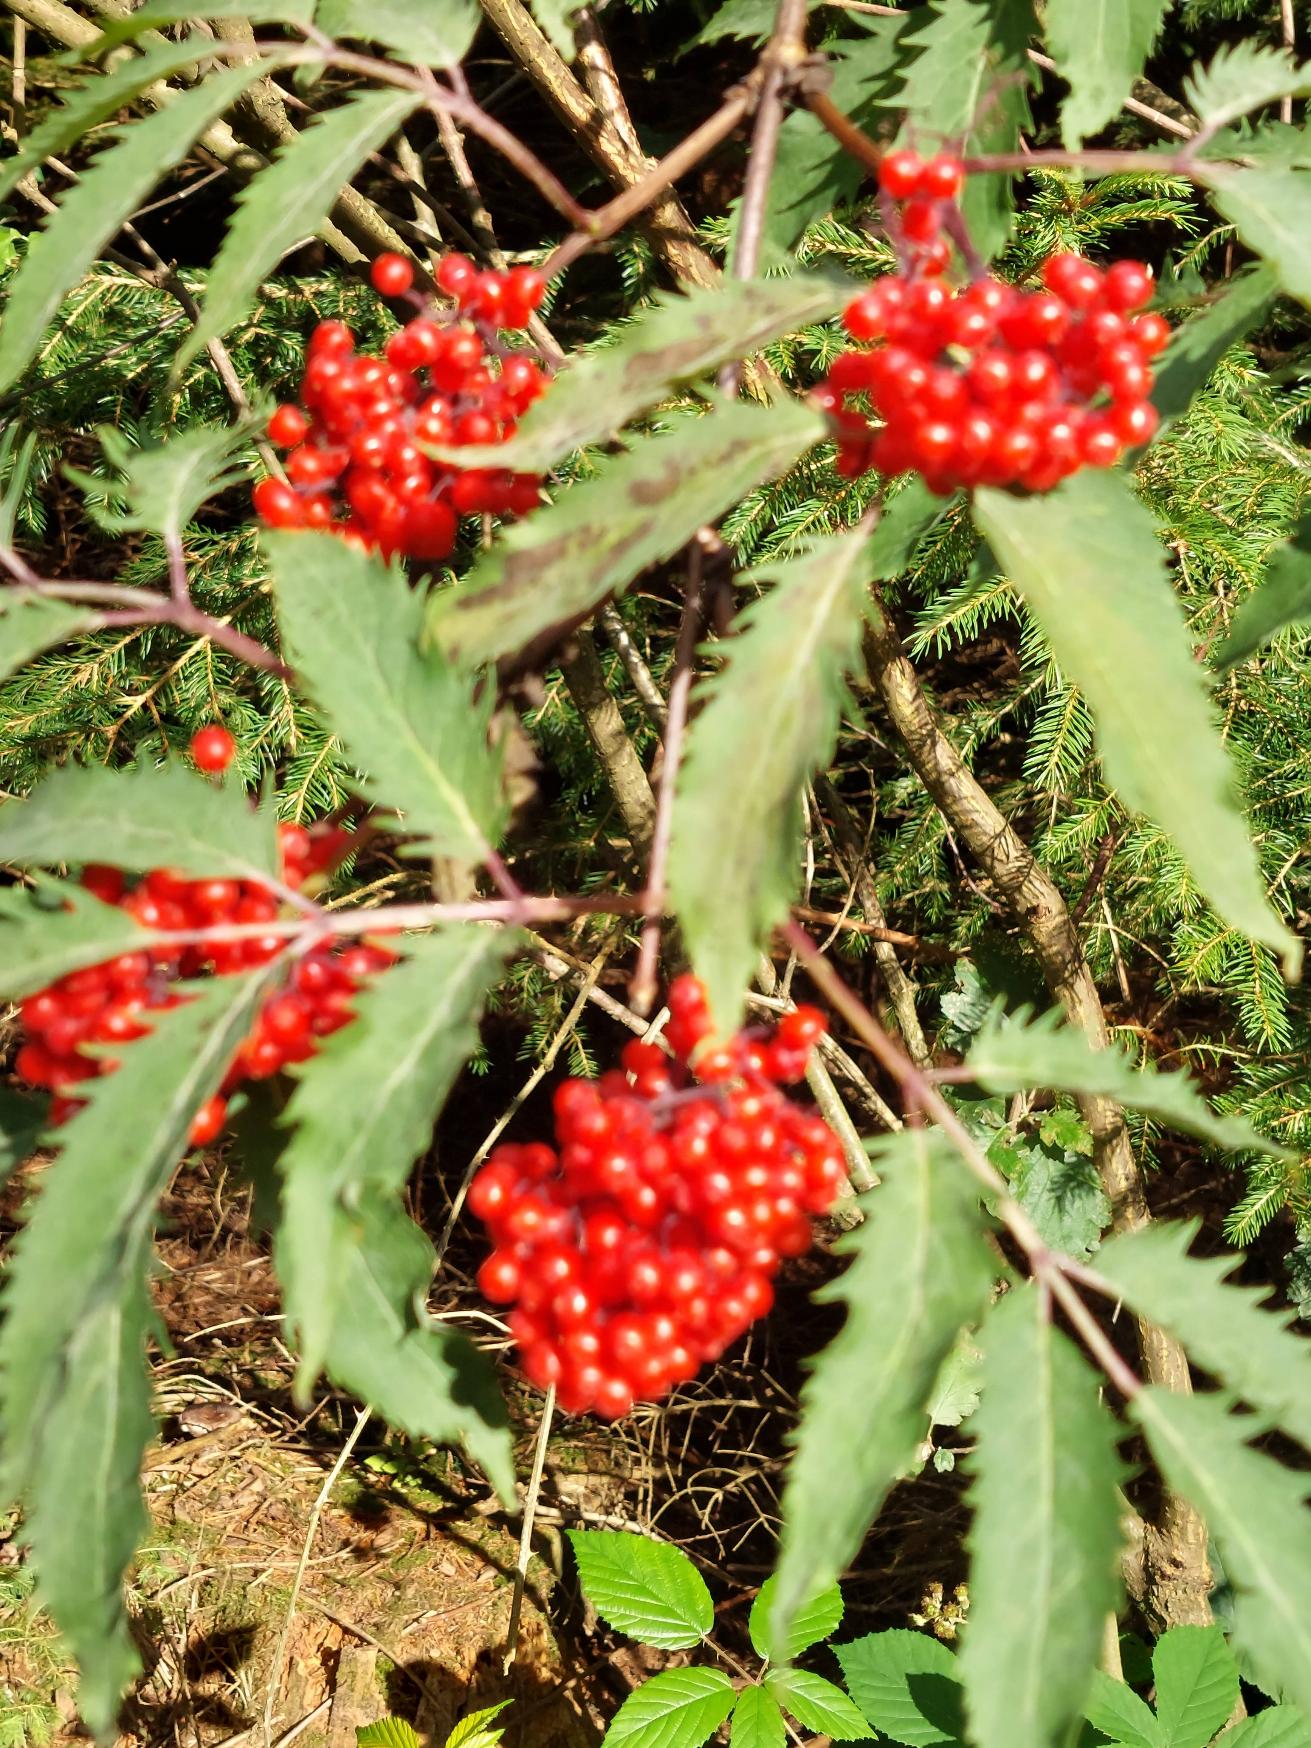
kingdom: Plantae
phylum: Tracheophyta
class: Magnoliopsida
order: Dipsacales
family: Viburnaceae
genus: Sambucus
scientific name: Sambucus racemosa
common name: Drue-hyld
